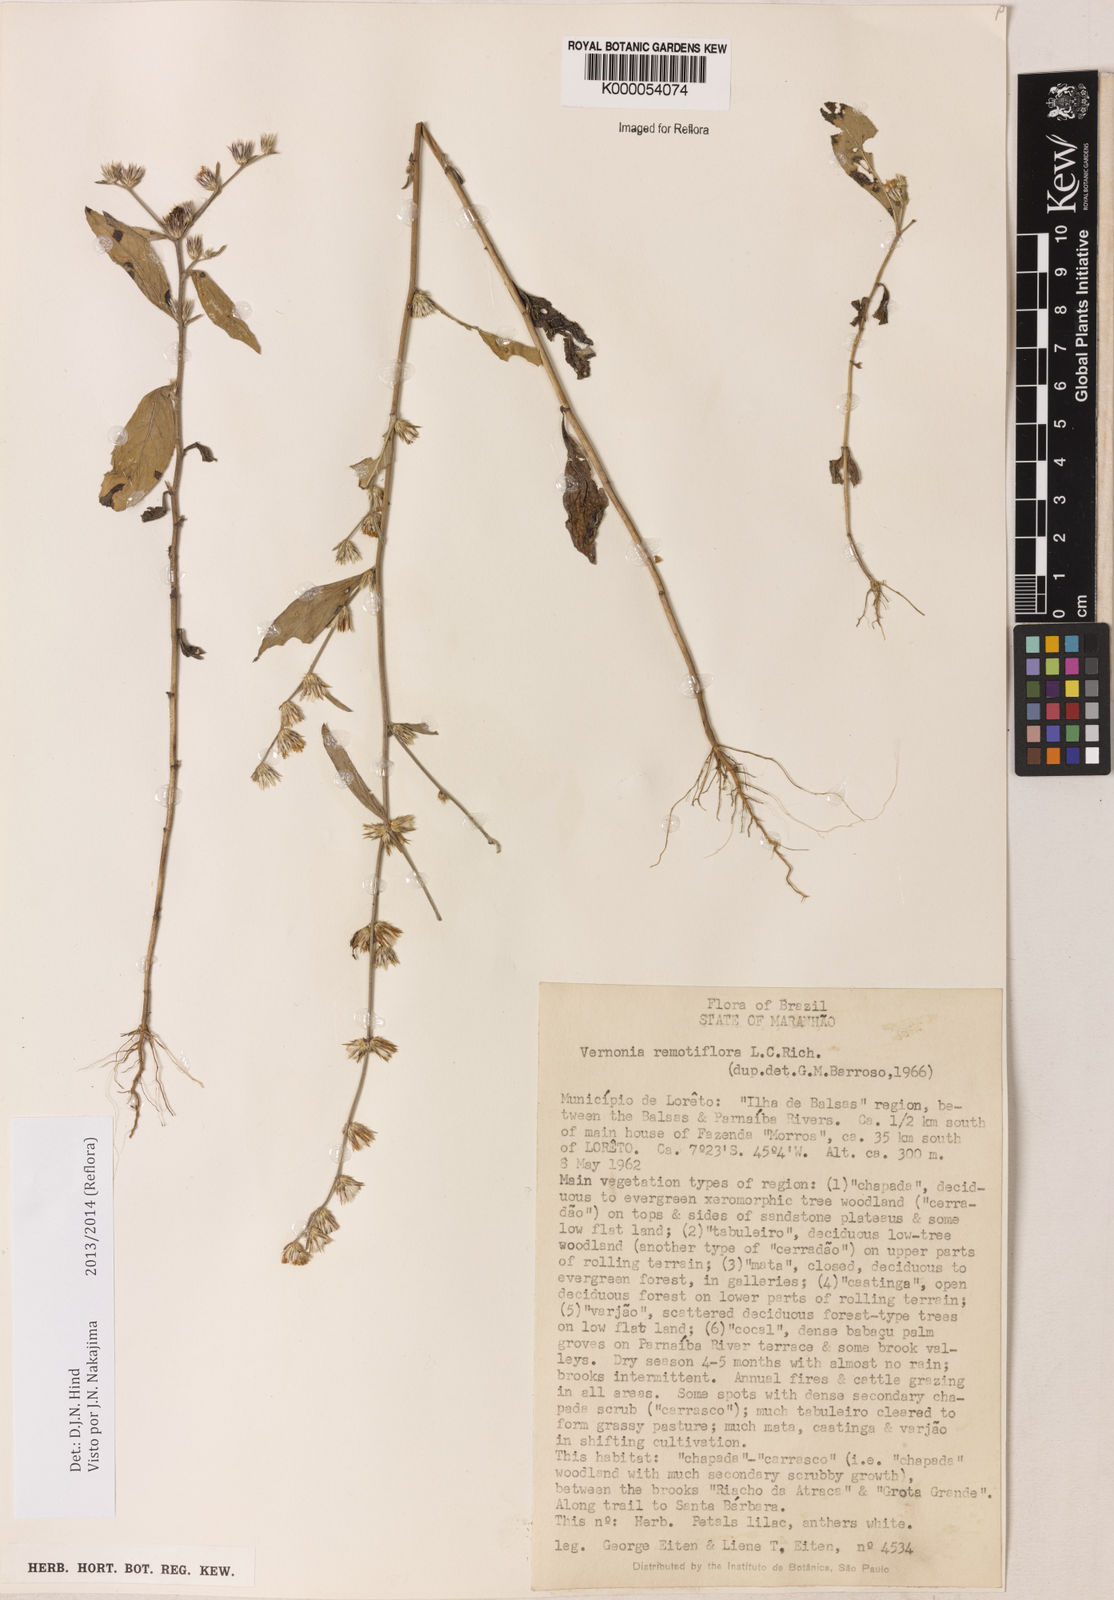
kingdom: Plantae
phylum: Tracheophyta
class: Magnoliopsida
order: Asterales
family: Asteraceae
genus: Lepidaploa
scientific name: Lepidaploa remotiflora
